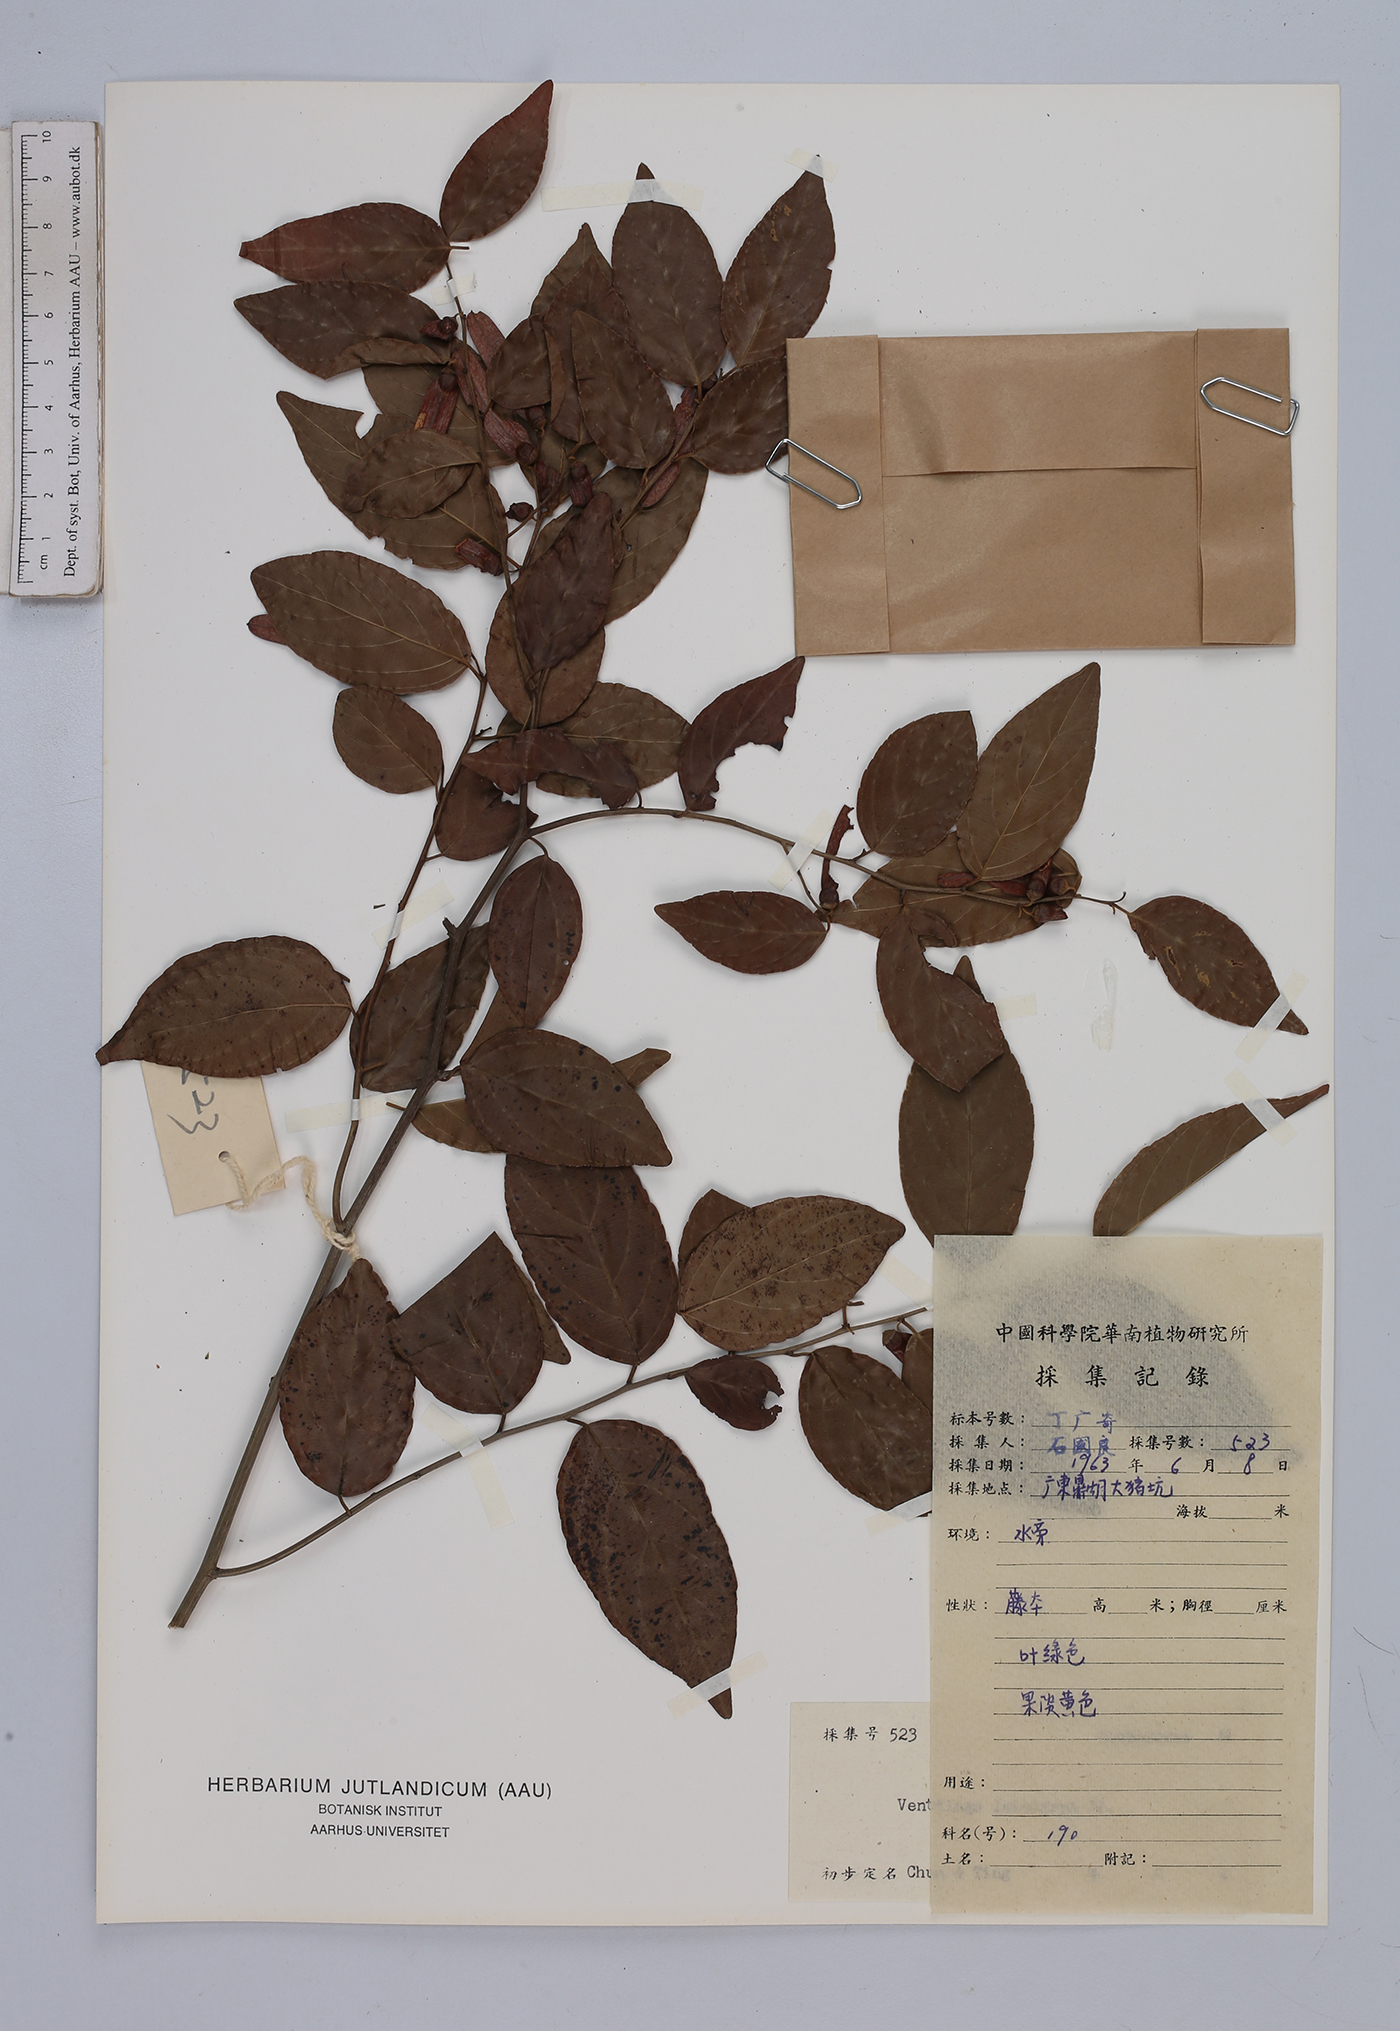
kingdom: Plantae
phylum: Tracheophyta
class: Magnoliopsida
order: Rosales
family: Rhamnaceae
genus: Ventilago
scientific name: Ventilago leiocarpa
